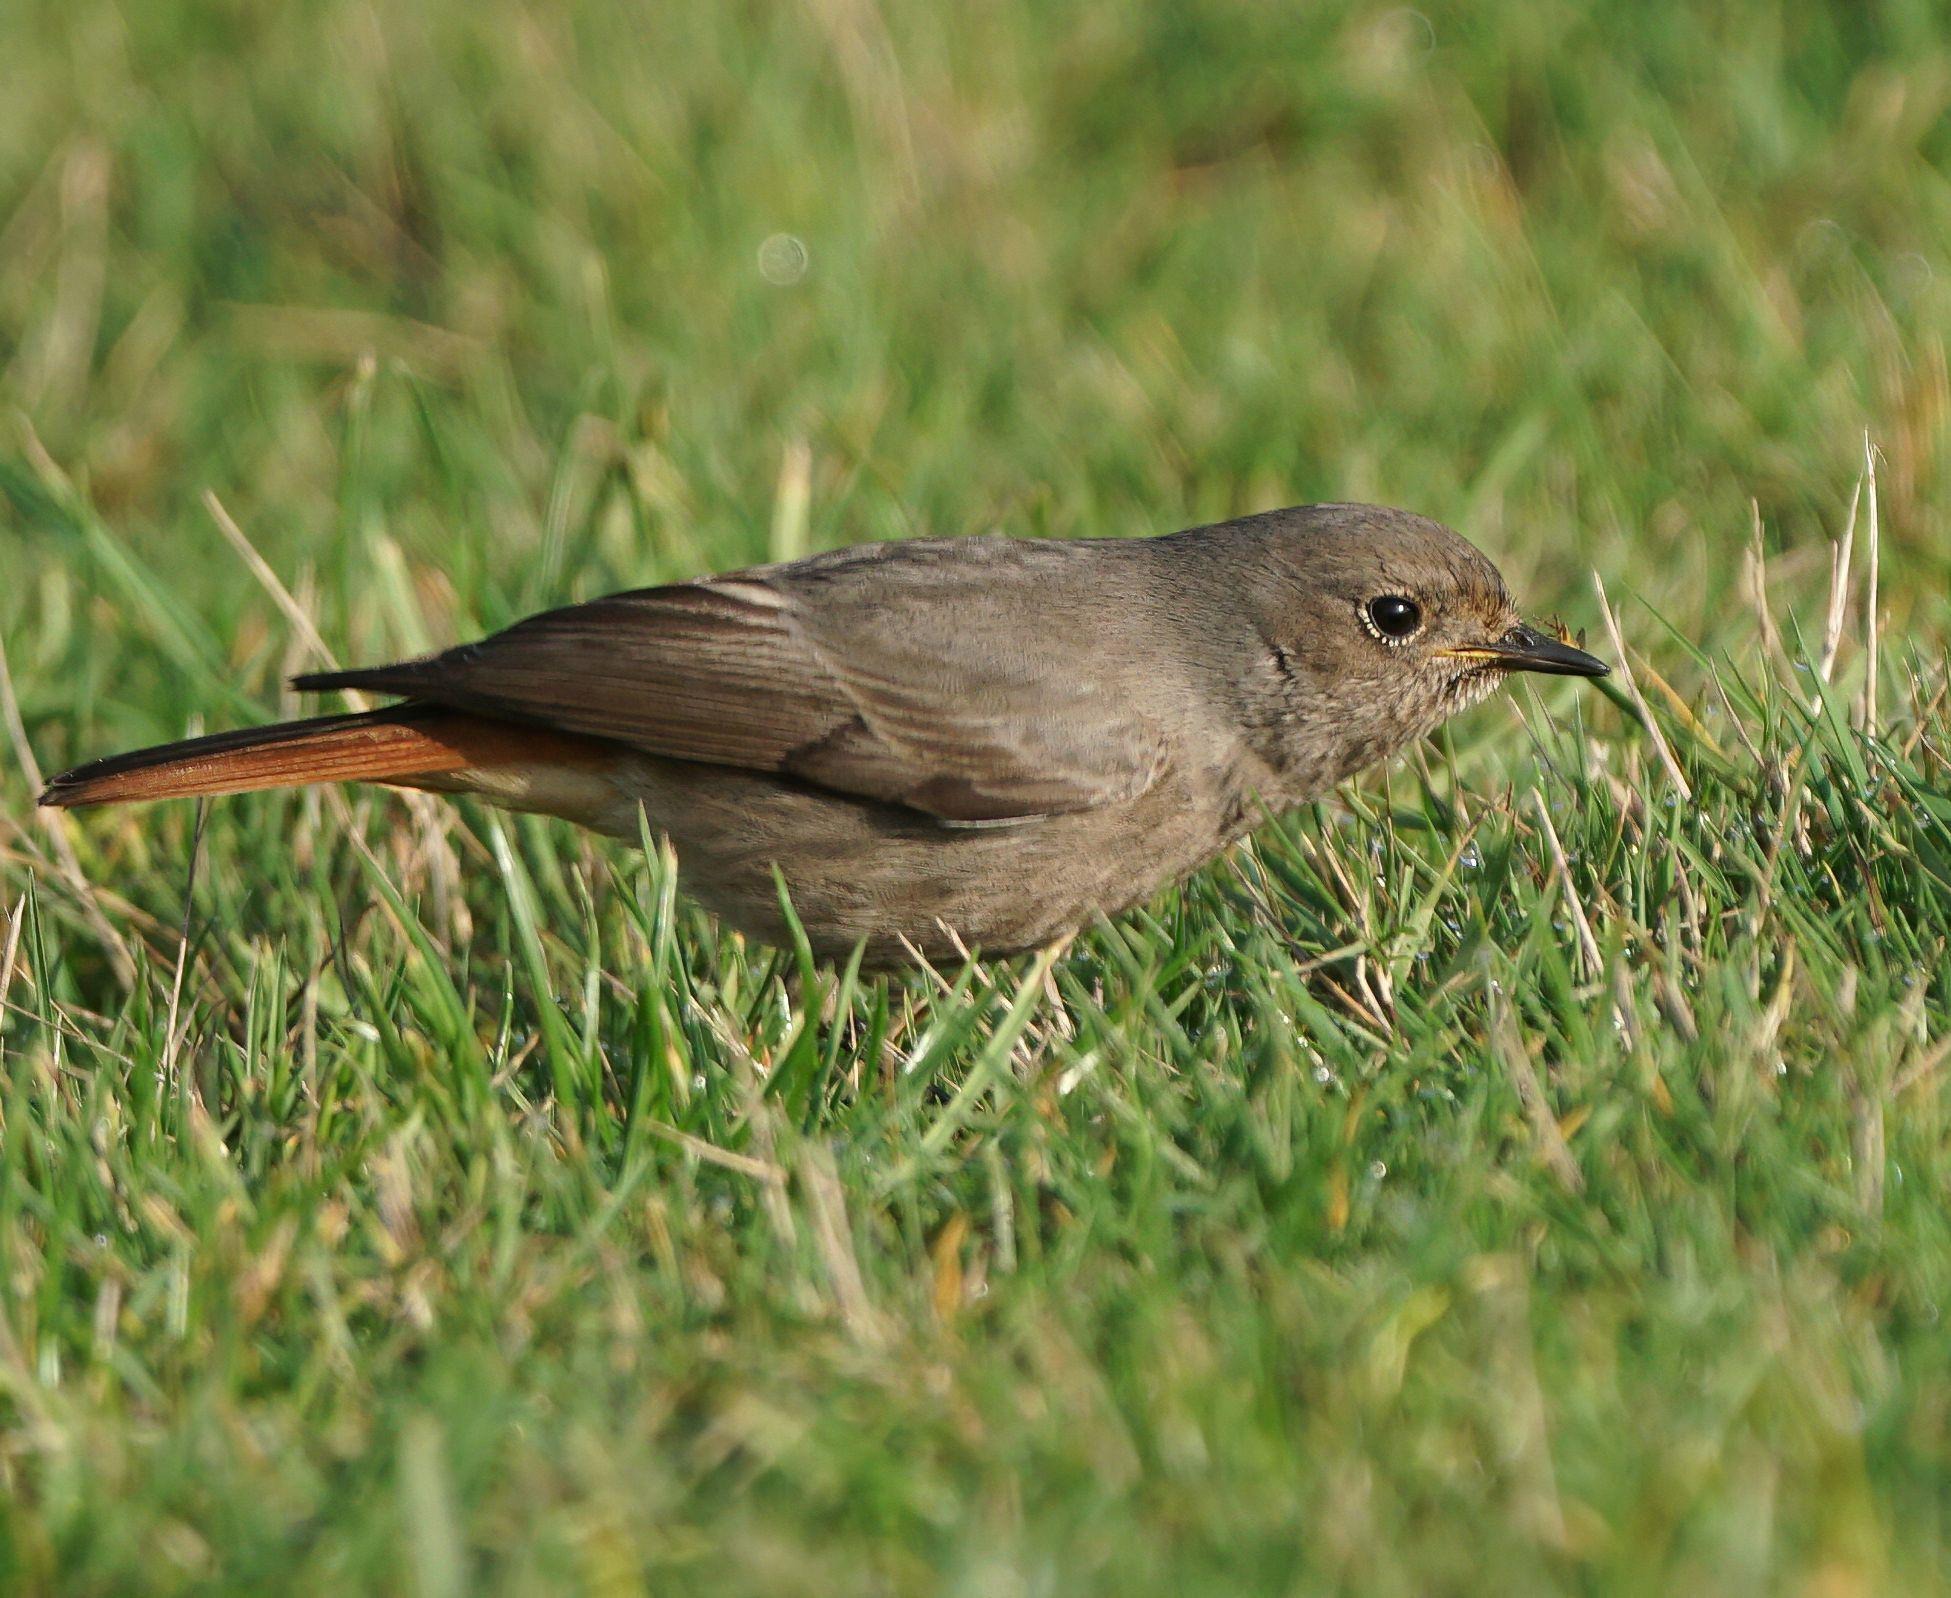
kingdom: Animalia
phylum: Chordata
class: Aves
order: Passeriformes
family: Muscicapidae
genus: Phoenicurus
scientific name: Phoenicurus ochruros
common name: Husrødstjert
